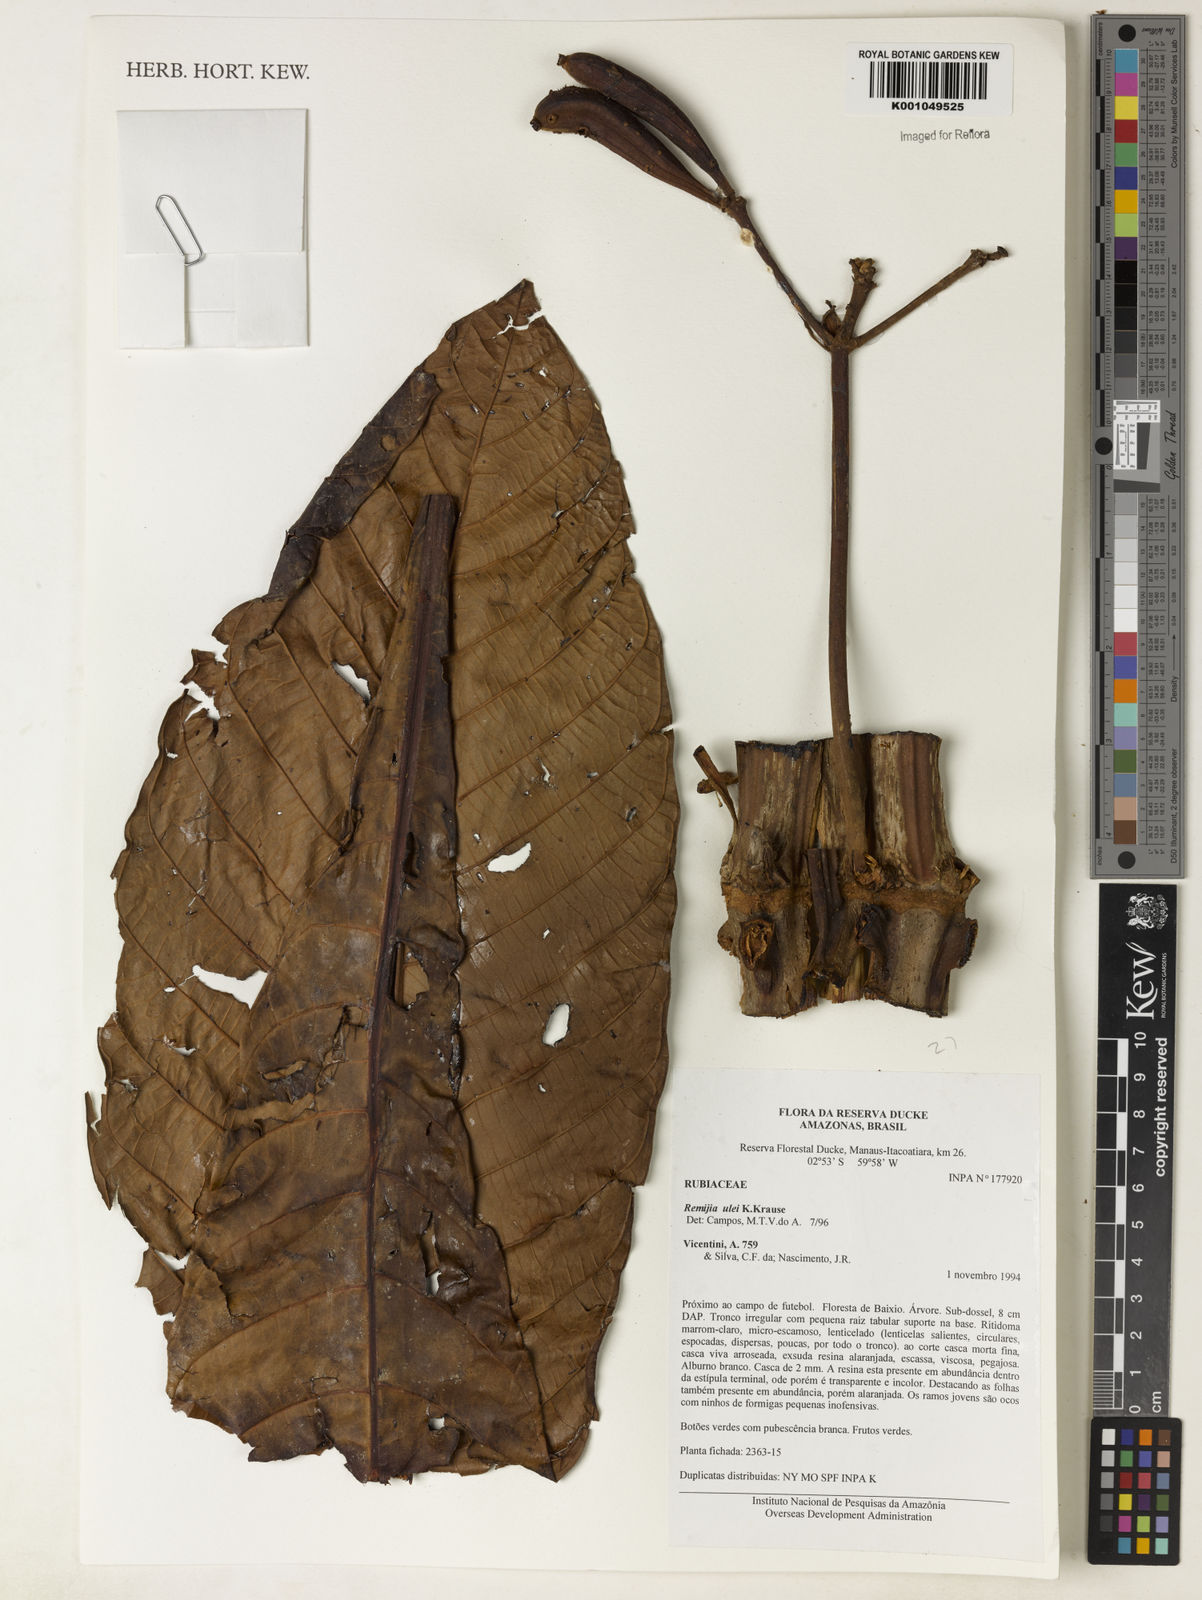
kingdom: Plantae
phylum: Tracheophyta
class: Magnoliopsida
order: Gentianales
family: Rubiaceae
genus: Remijia
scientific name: Remijia ulei
